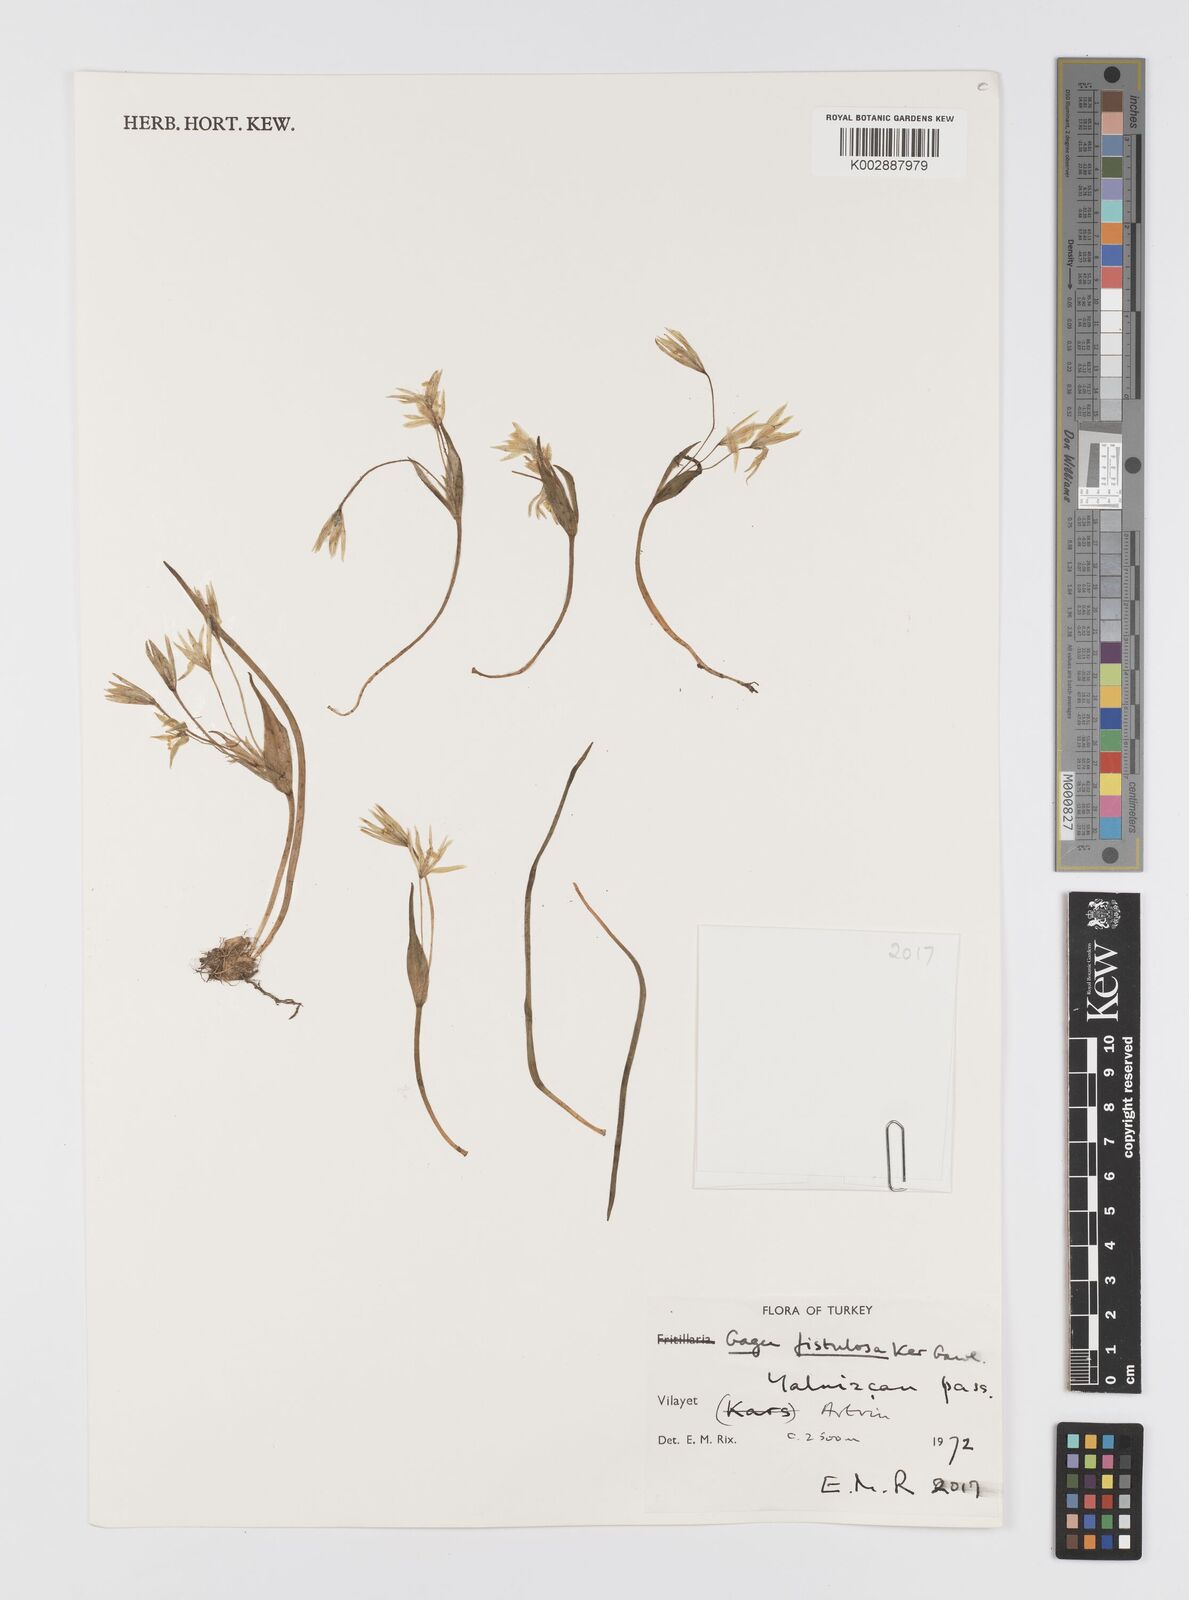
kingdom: Plantae
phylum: Tracheophyta
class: Liliopsida
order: Liliales
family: Liliaceae
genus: Gagea
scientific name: Gagea bohemica
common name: Early star-of-bethlehem
